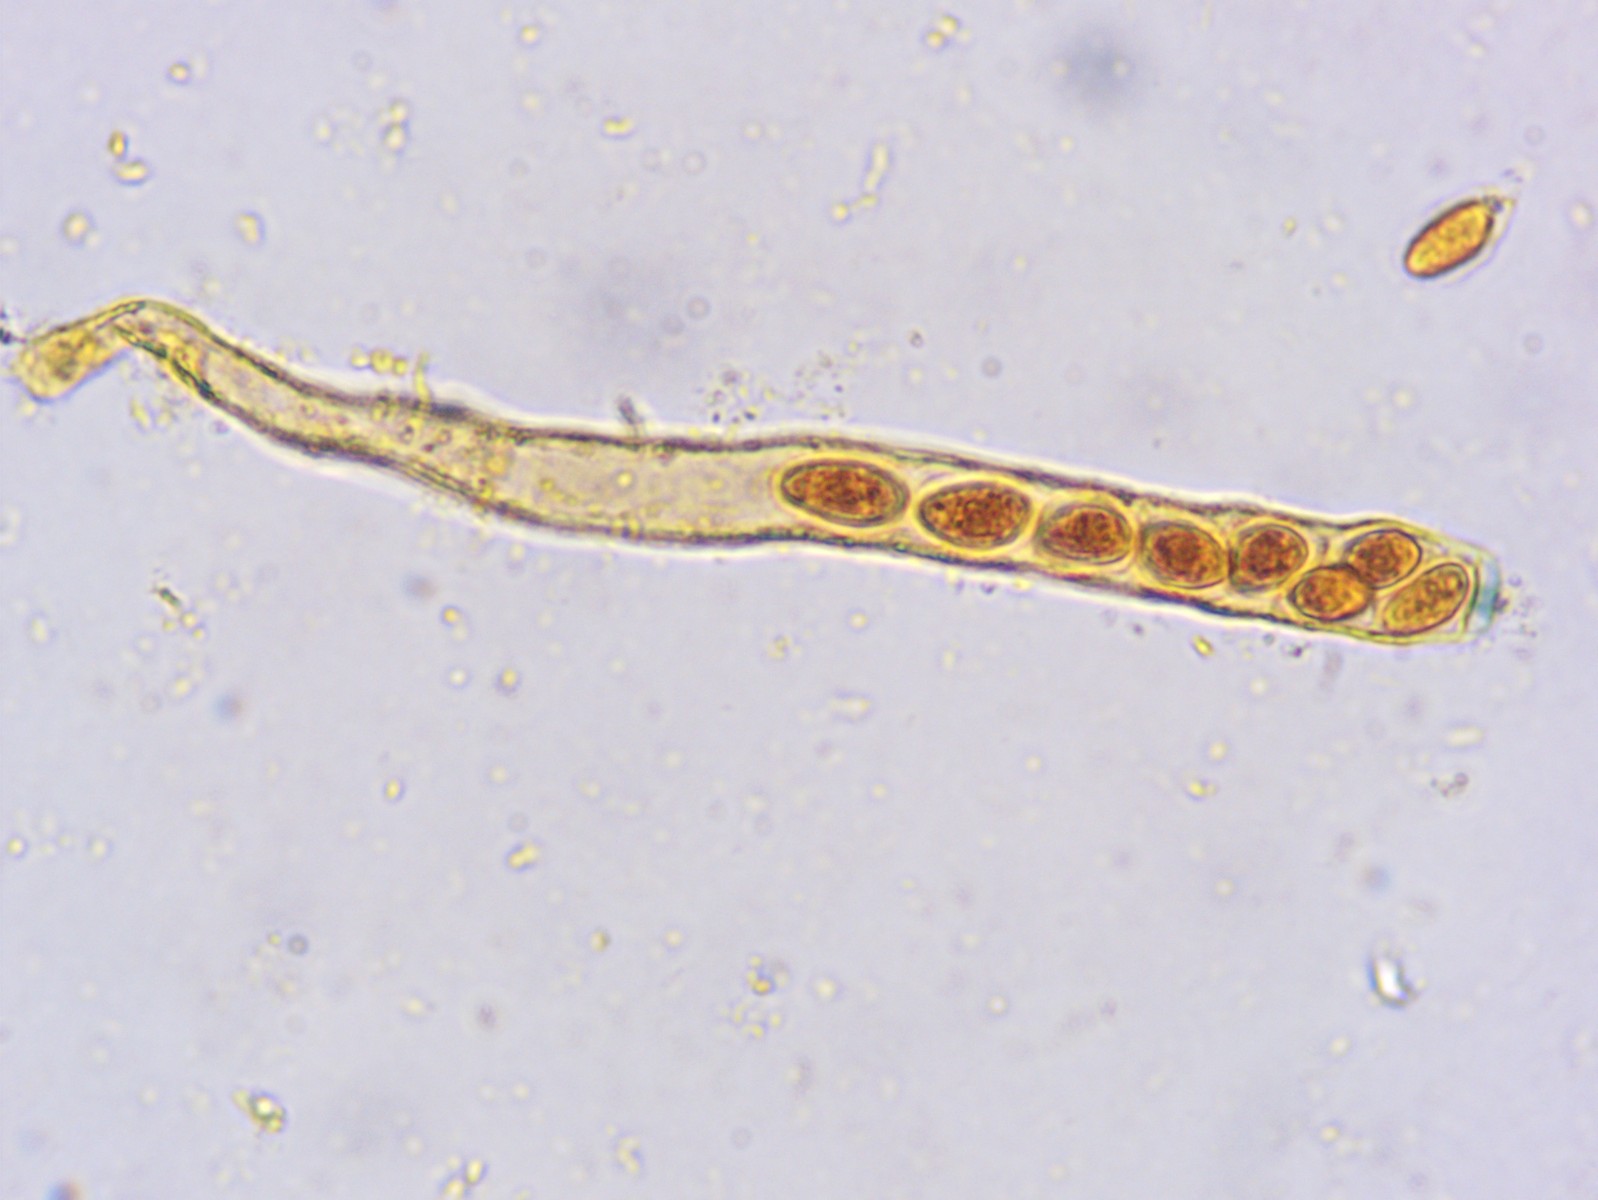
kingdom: Fungi
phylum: Ascomycota
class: Leotiomycetes
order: Helotiales
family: Sclerotiniaceae
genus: Ciboria
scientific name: Ciboria amentacea
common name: ellerakle-knoldskive
